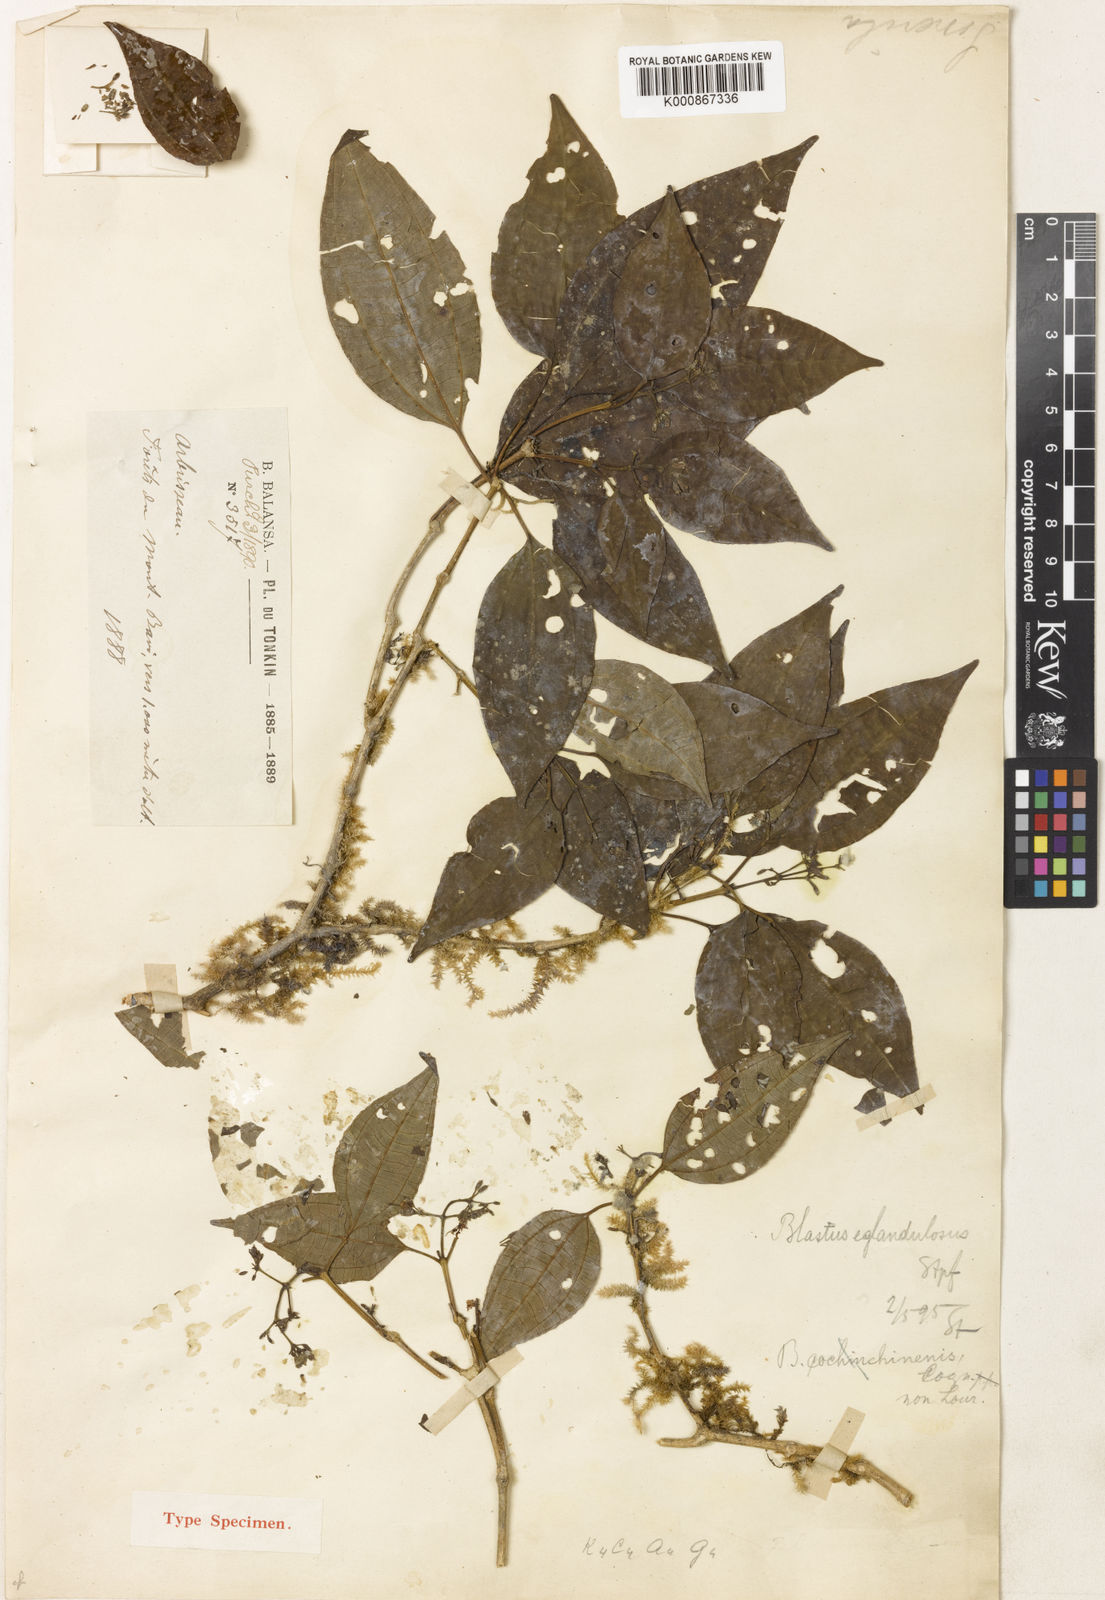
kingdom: Plantae
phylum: Tracheophyta
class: Magnoliopsida
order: Myrtales
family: Melastomataceae
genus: Blastus
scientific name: Blastus eglandulosus
